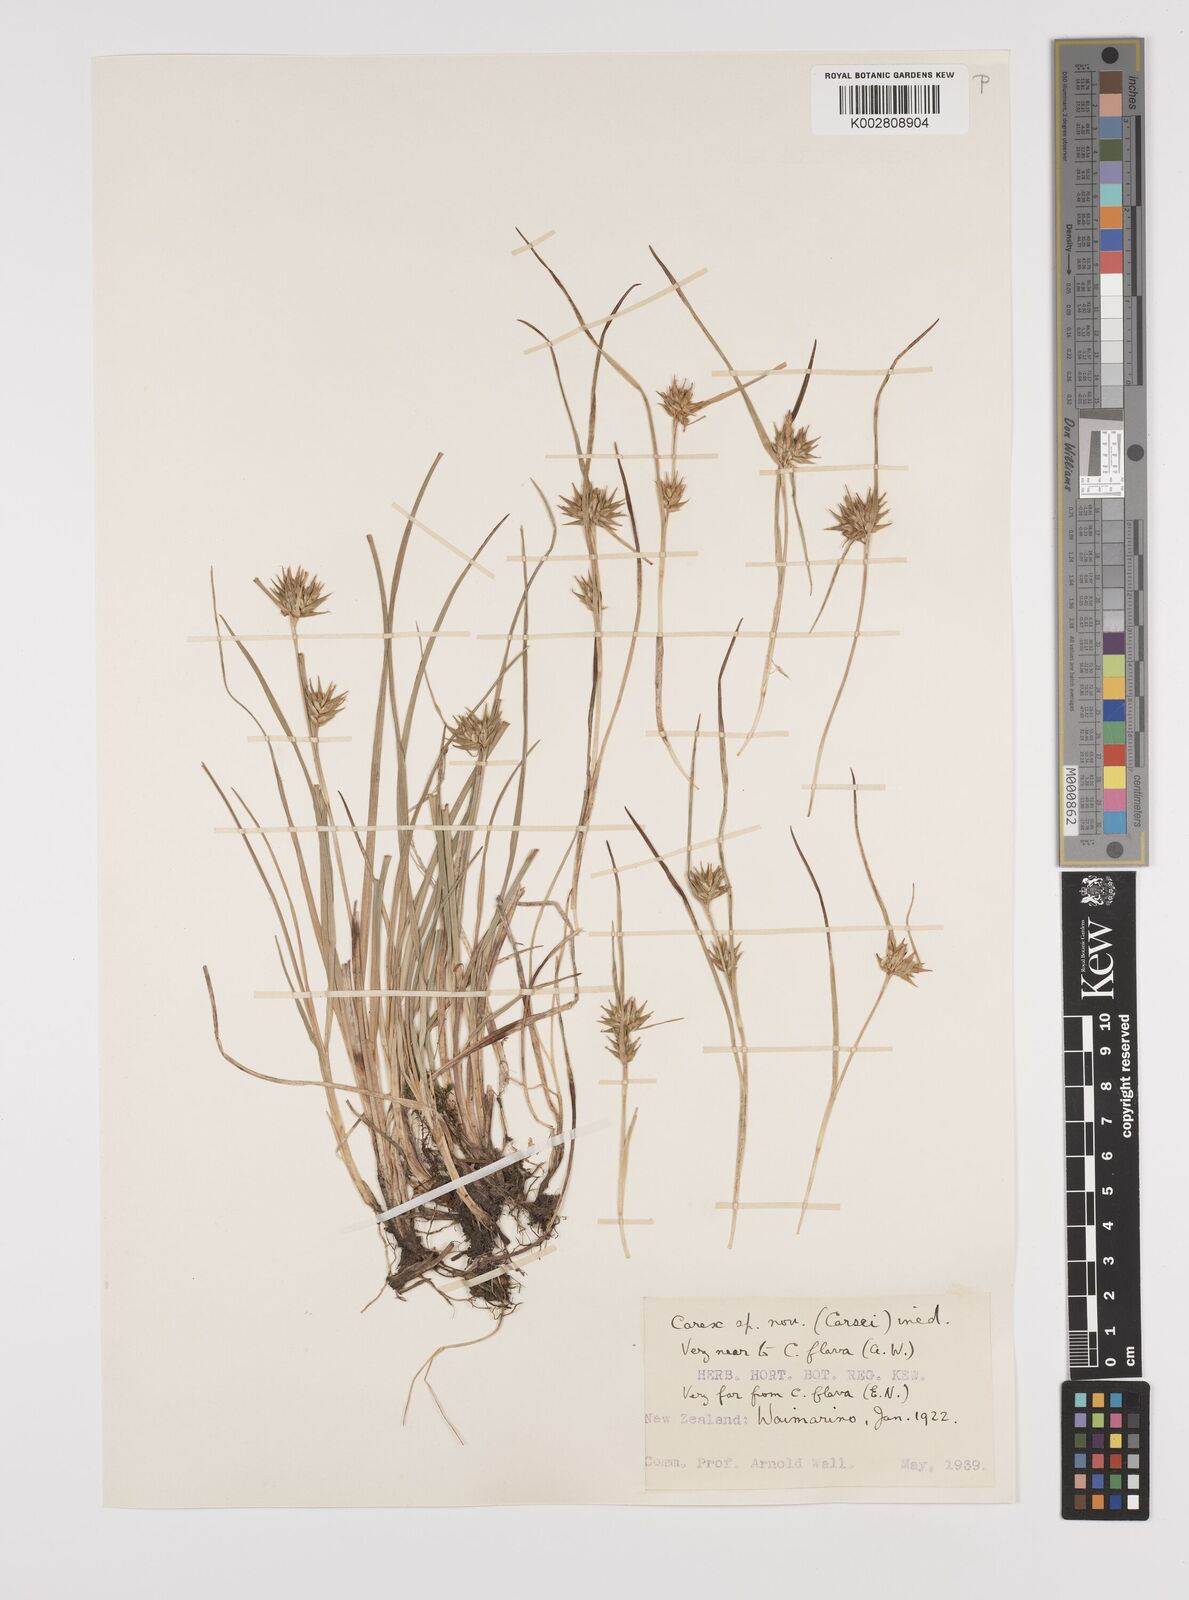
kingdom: Plantae
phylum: Tracheophyta
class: Liliopsida
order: Poales
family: Cyperaceae
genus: Carex
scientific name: Carex michauxiana
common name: Michaux's sedge
